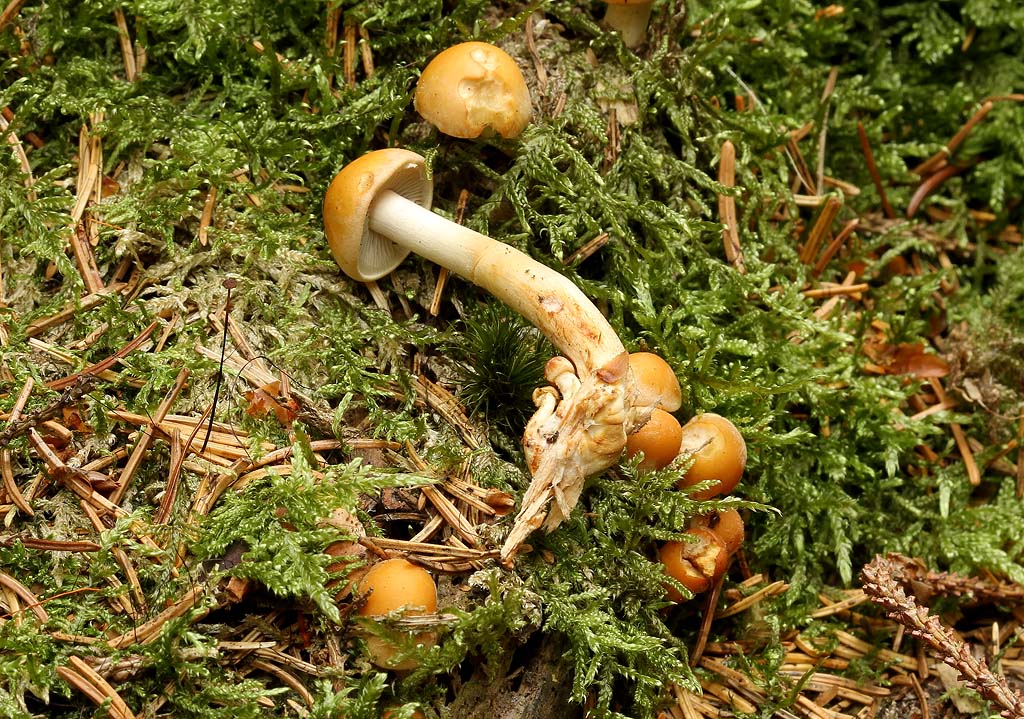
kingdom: Fungi
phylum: Basidiomycota
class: Agaricomycetes
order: Agaricales
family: Strophariaceae
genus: Hypholoma
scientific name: Hypholoma capnoides
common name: gran-svovlhat
